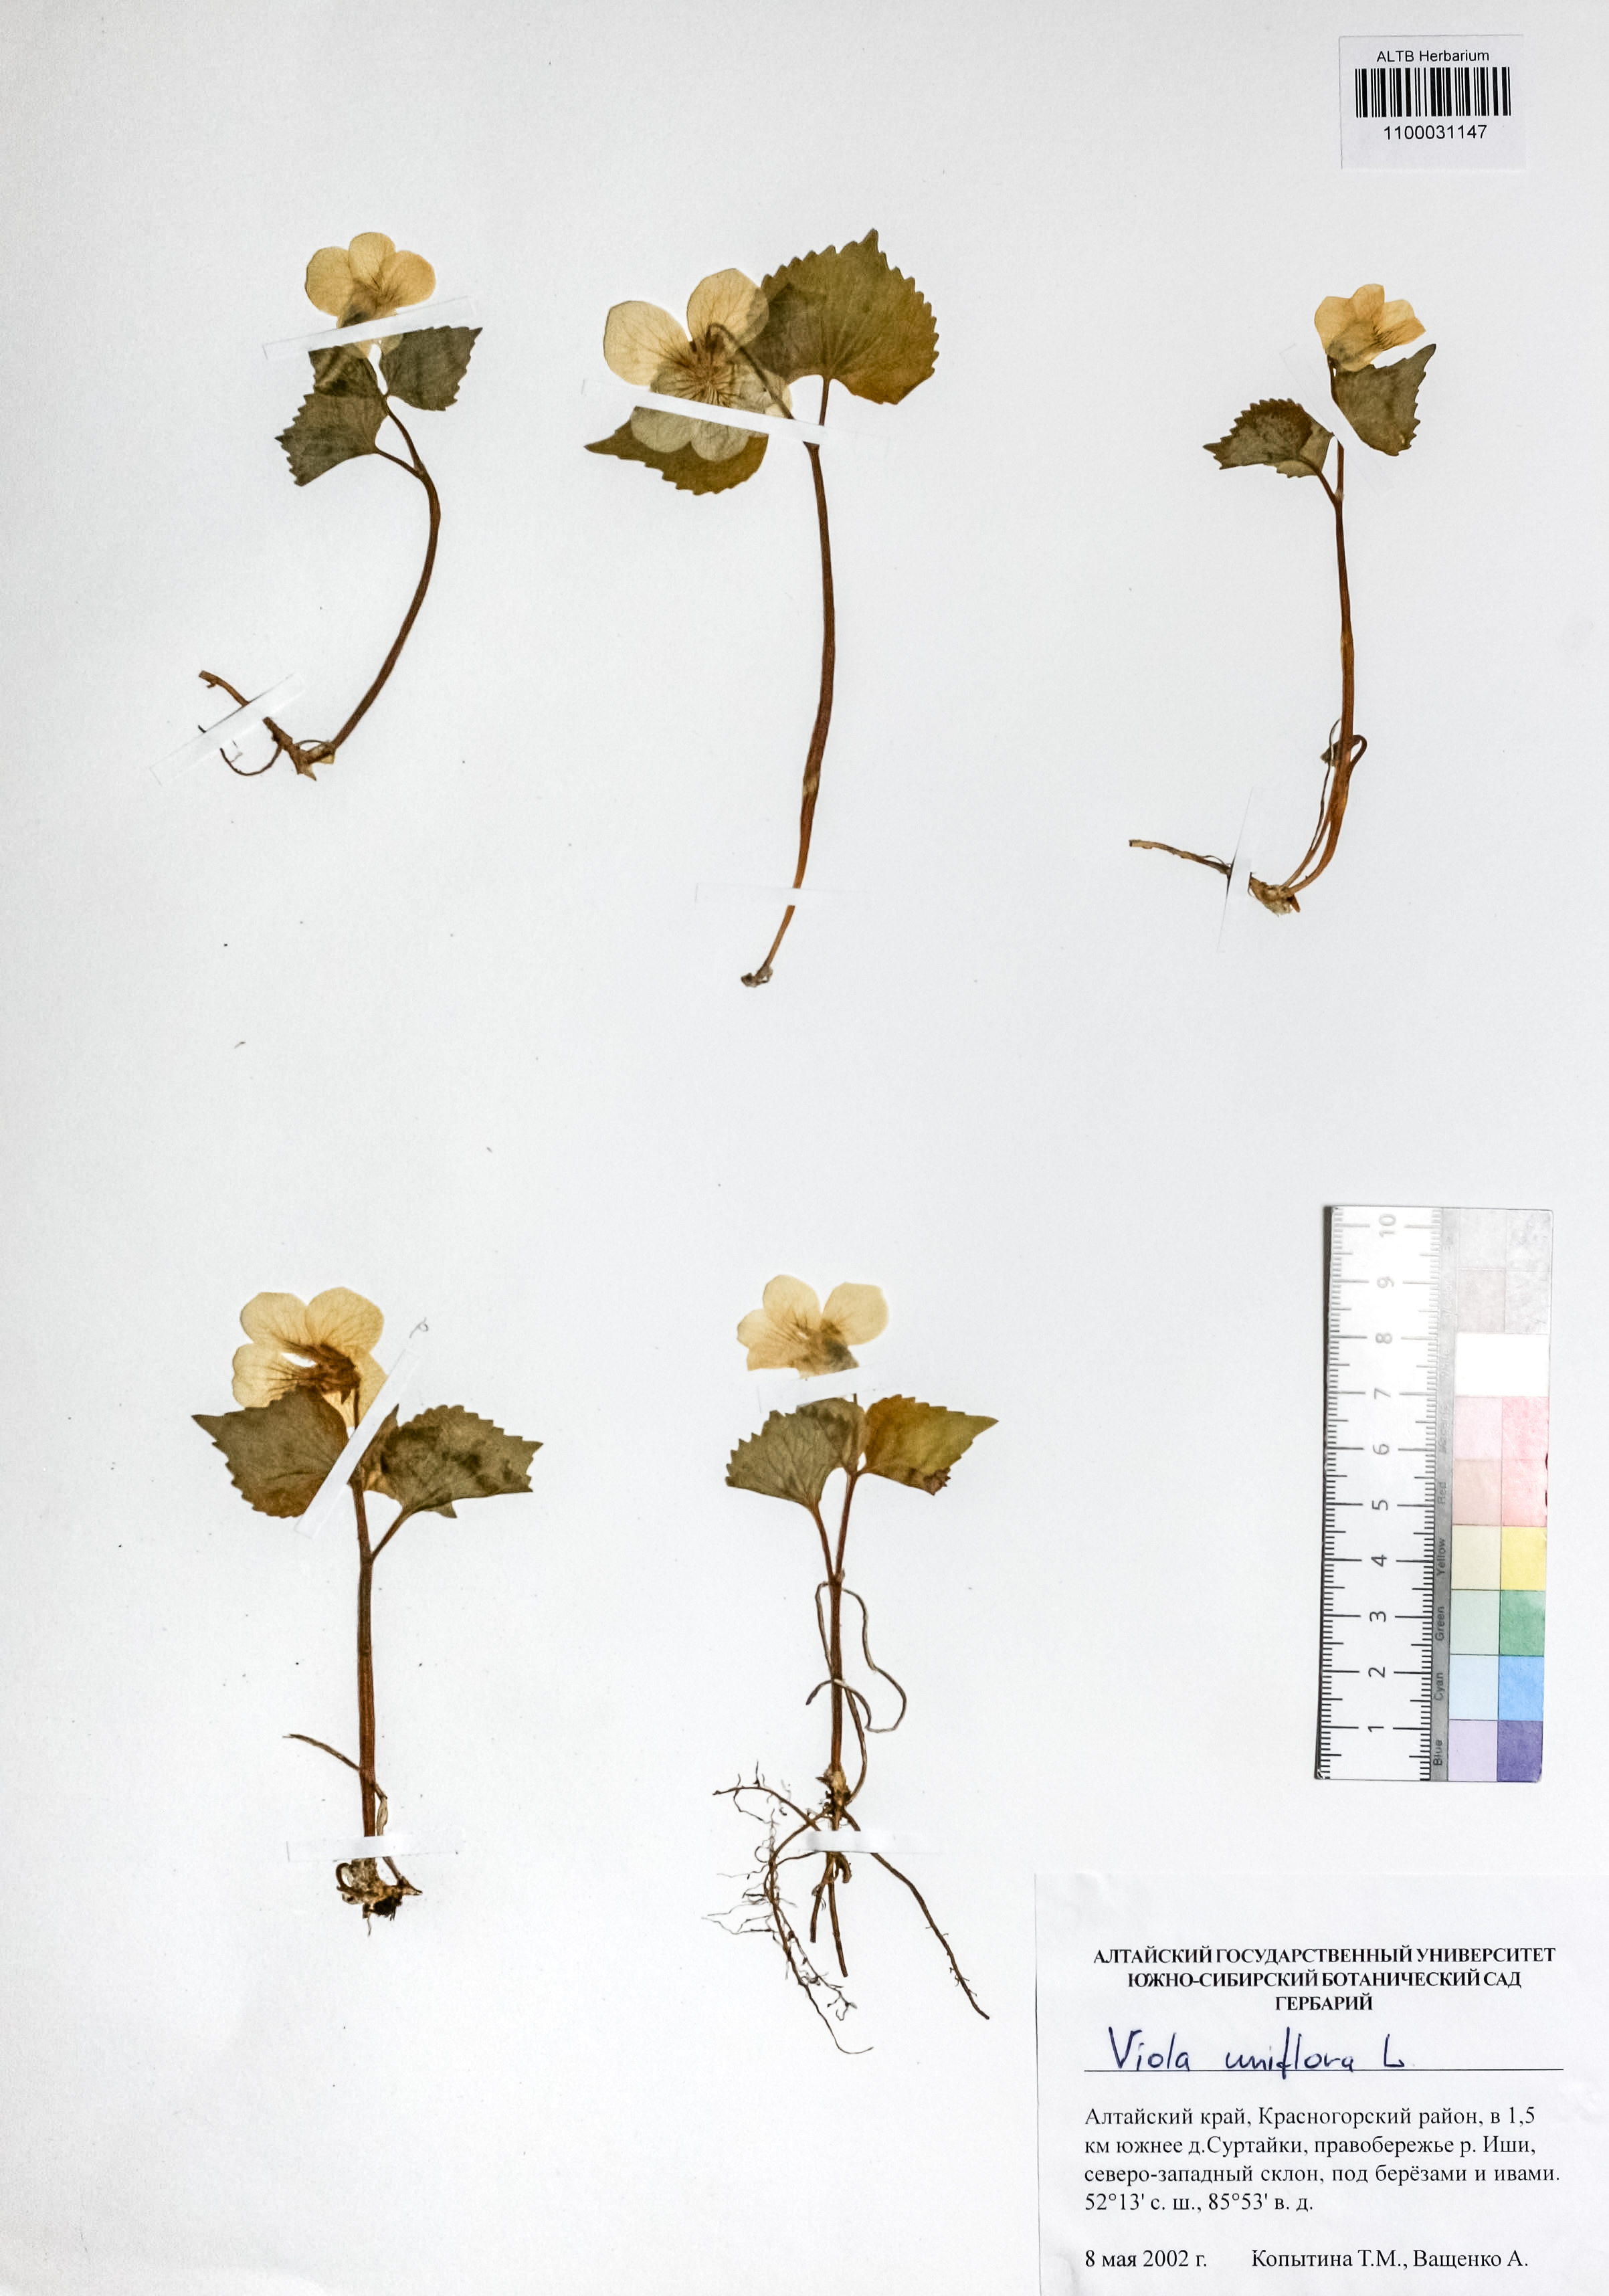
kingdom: Plantae
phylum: Tracheophyta
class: Magnoliopsida
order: Malpighiales
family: Violaceae
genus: Viola
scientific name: Viola uniflora
